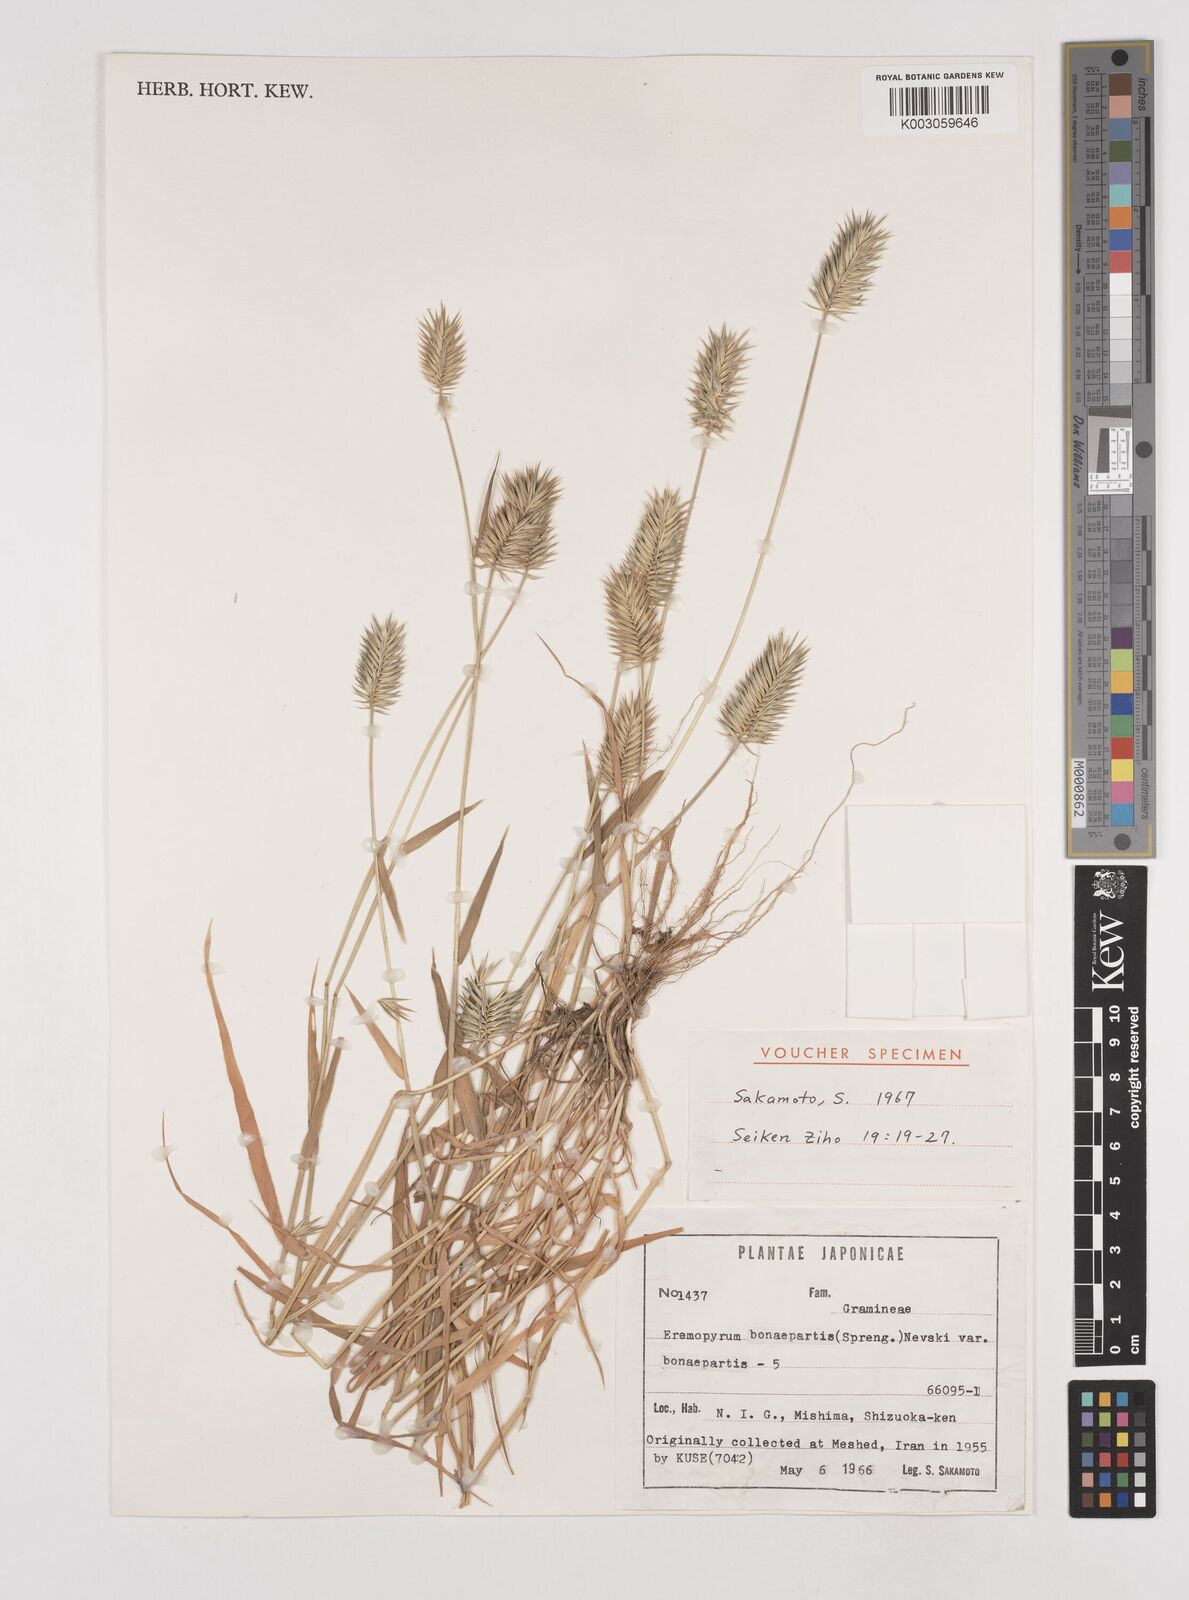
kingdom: Plantae
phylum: Tracheophyta
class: Liliopsida
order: Poales
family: Poaceae
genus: Eremopyrum
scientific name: Eremopyrum bonaepartis
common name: Tapertip false wheatgrass
